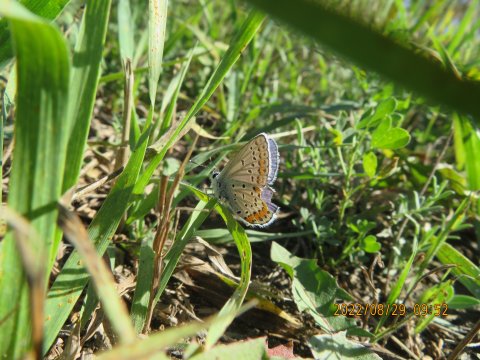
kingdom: Animalia
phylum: Arthropoda
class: Insecta
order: Lepidoptera
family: Lycaenidae
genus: Lycaeides
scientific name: Lycaeides melissa
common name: Melissa Blue
